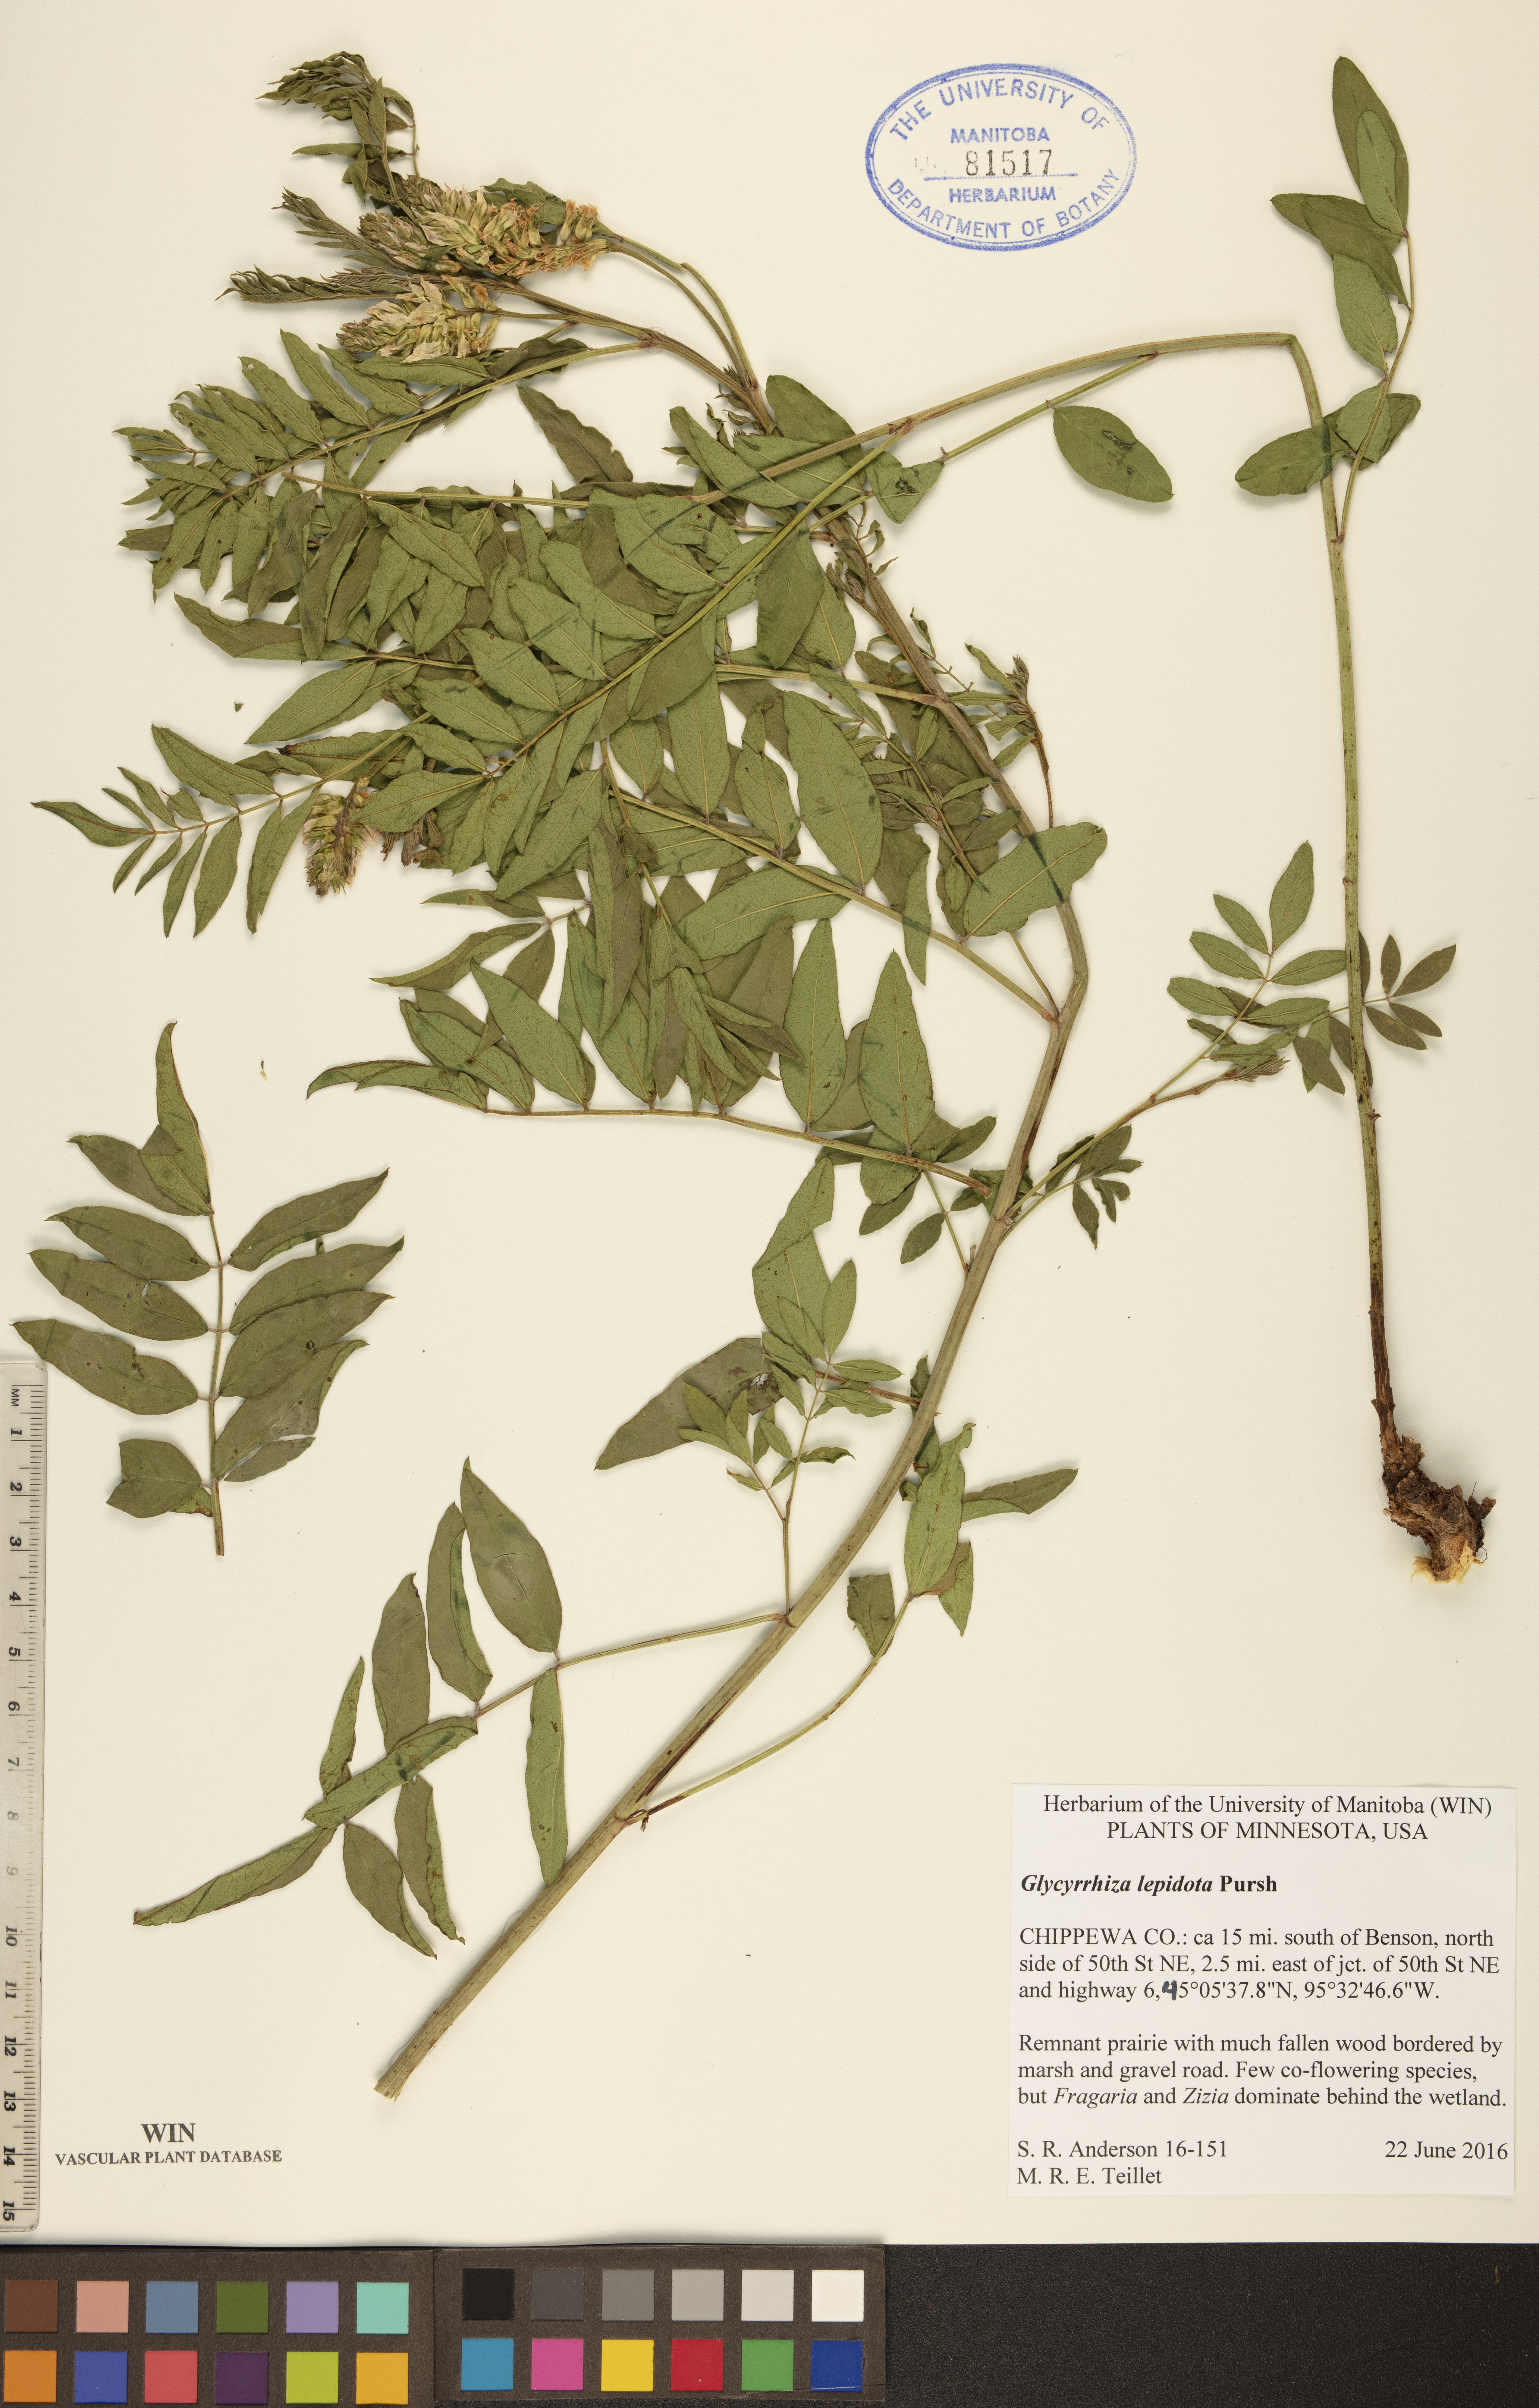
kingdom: Plantae
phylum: Tracheophyta
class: Magnoliopsida
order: Fabales
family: Fabaceae
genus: Glycyrrhiza
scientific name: Glycyrrhiza lepidota
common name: American liquorice
